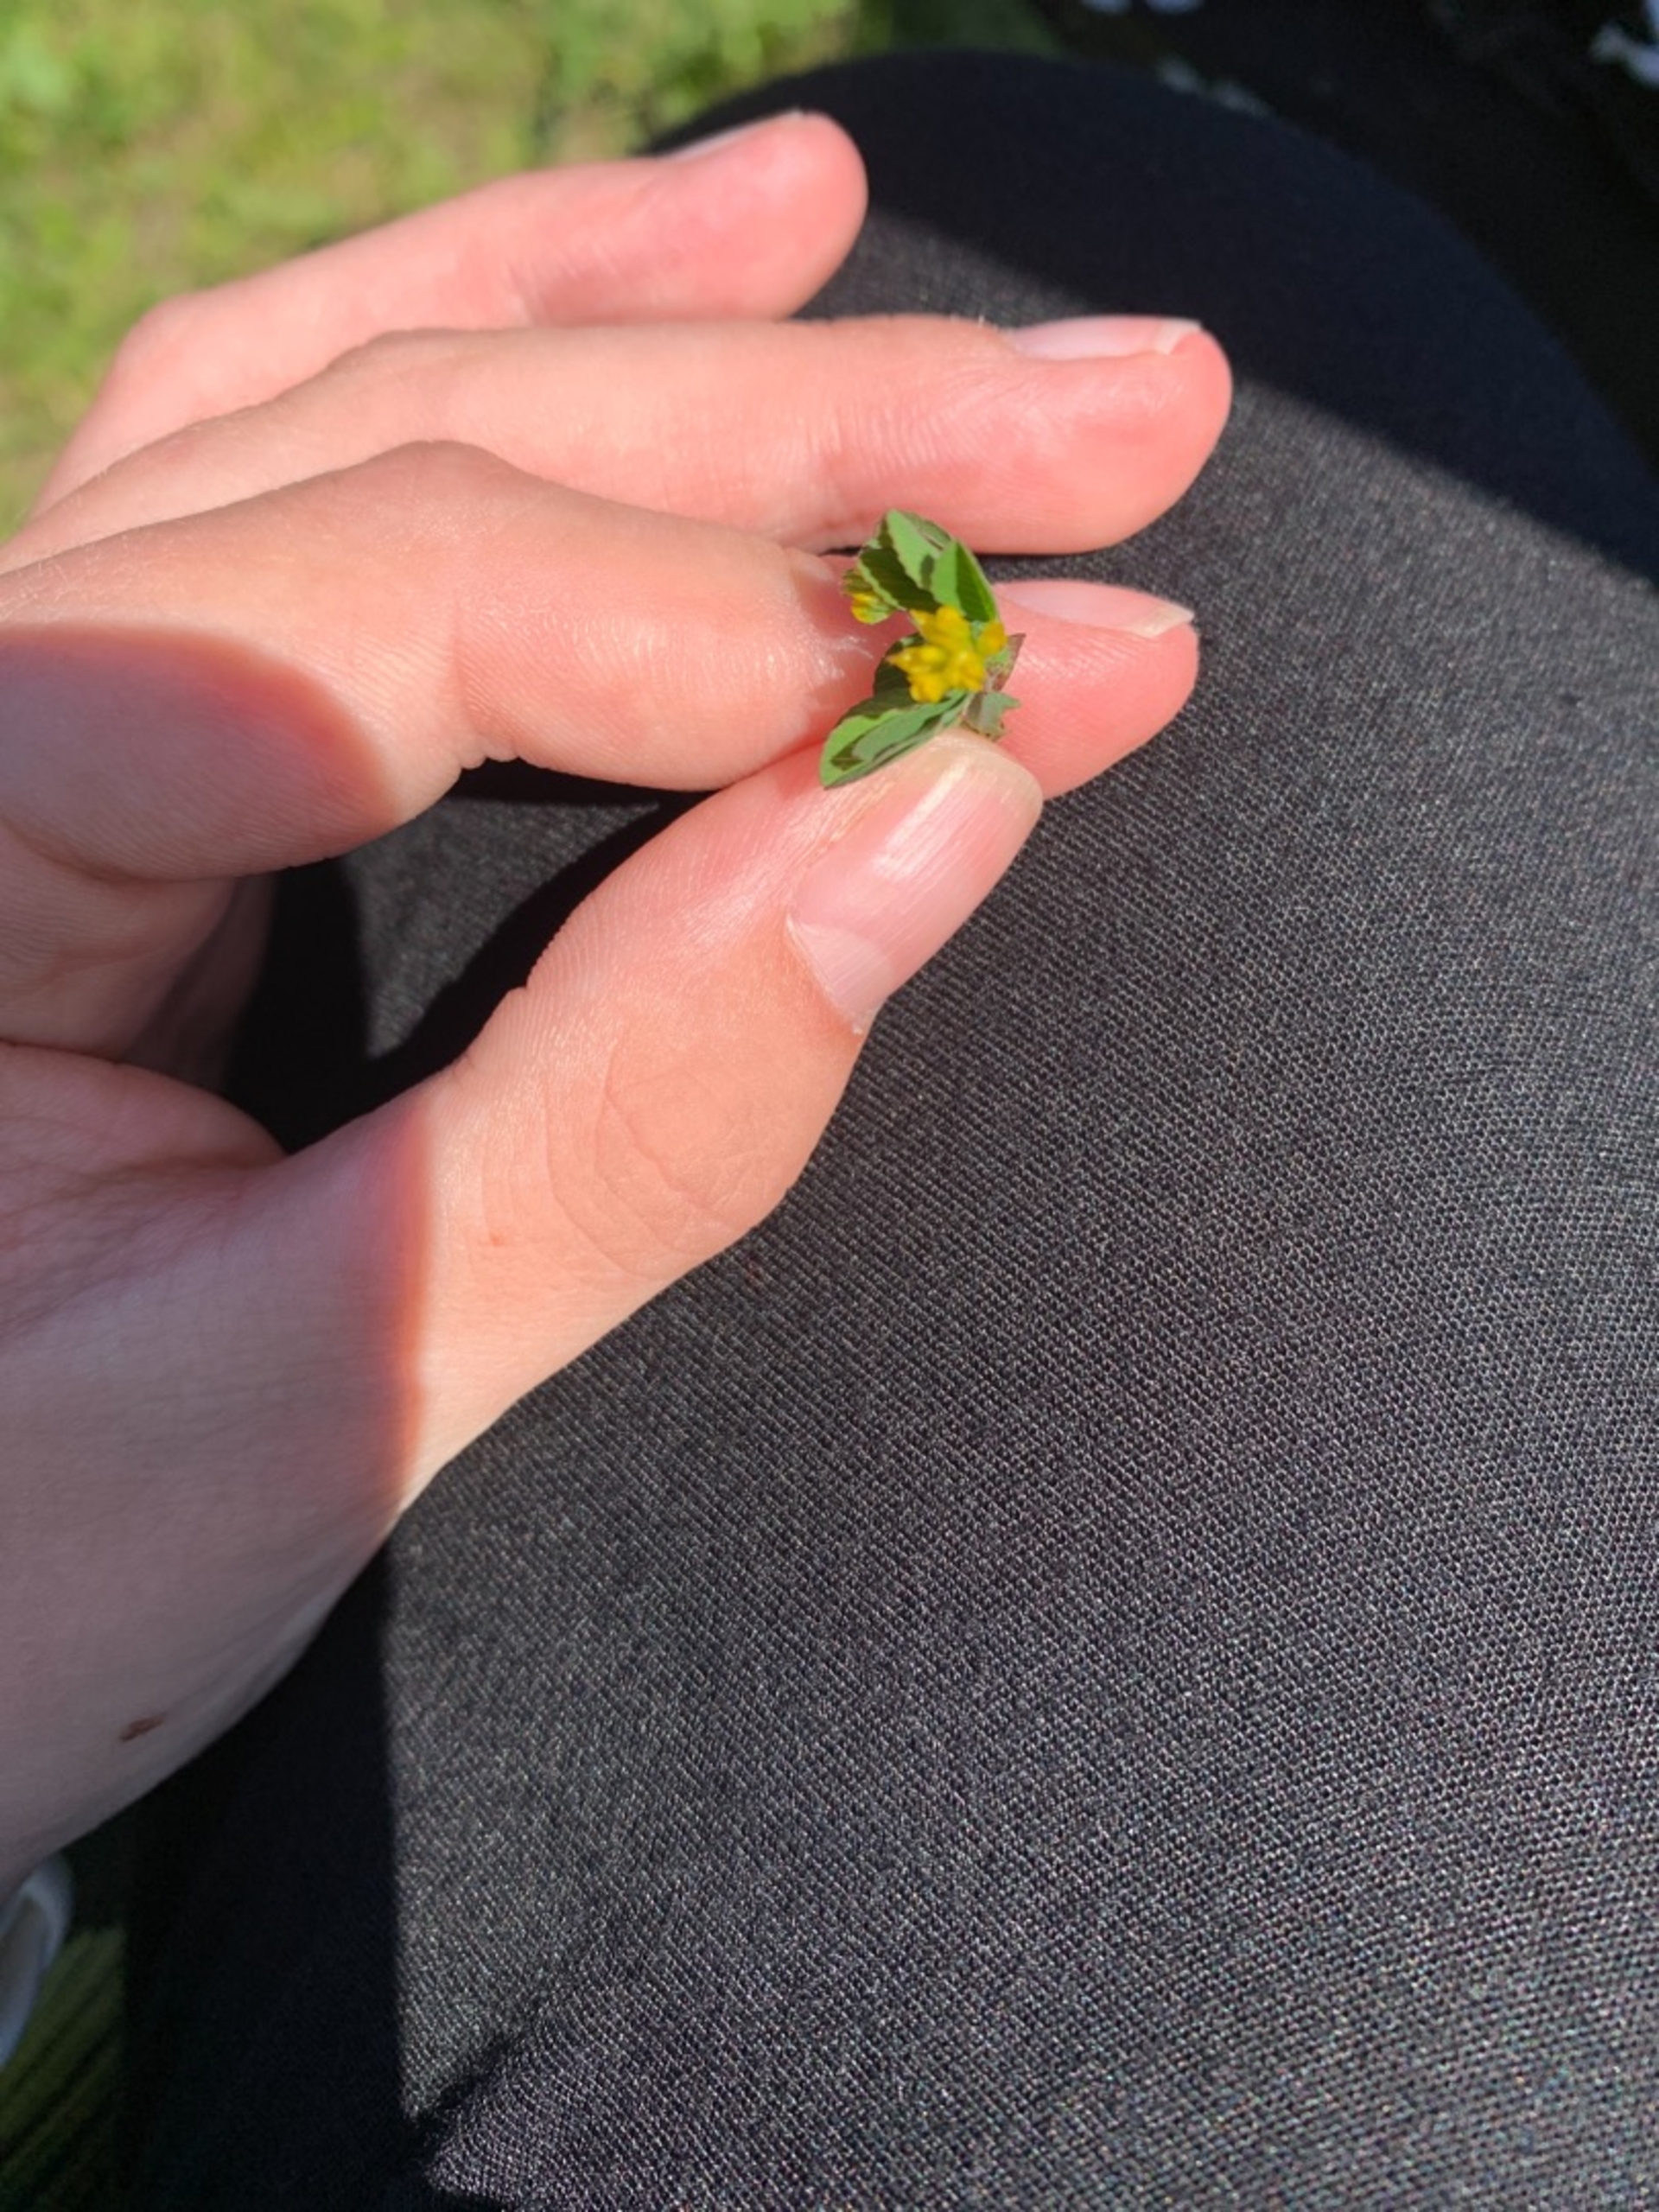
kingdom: Plantae
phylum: Tracheophyta
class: Magnoliopsida
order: Fabales
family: Fabaceae
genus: Trifolium
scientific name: Trifolium dubium
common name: Fin kløver
